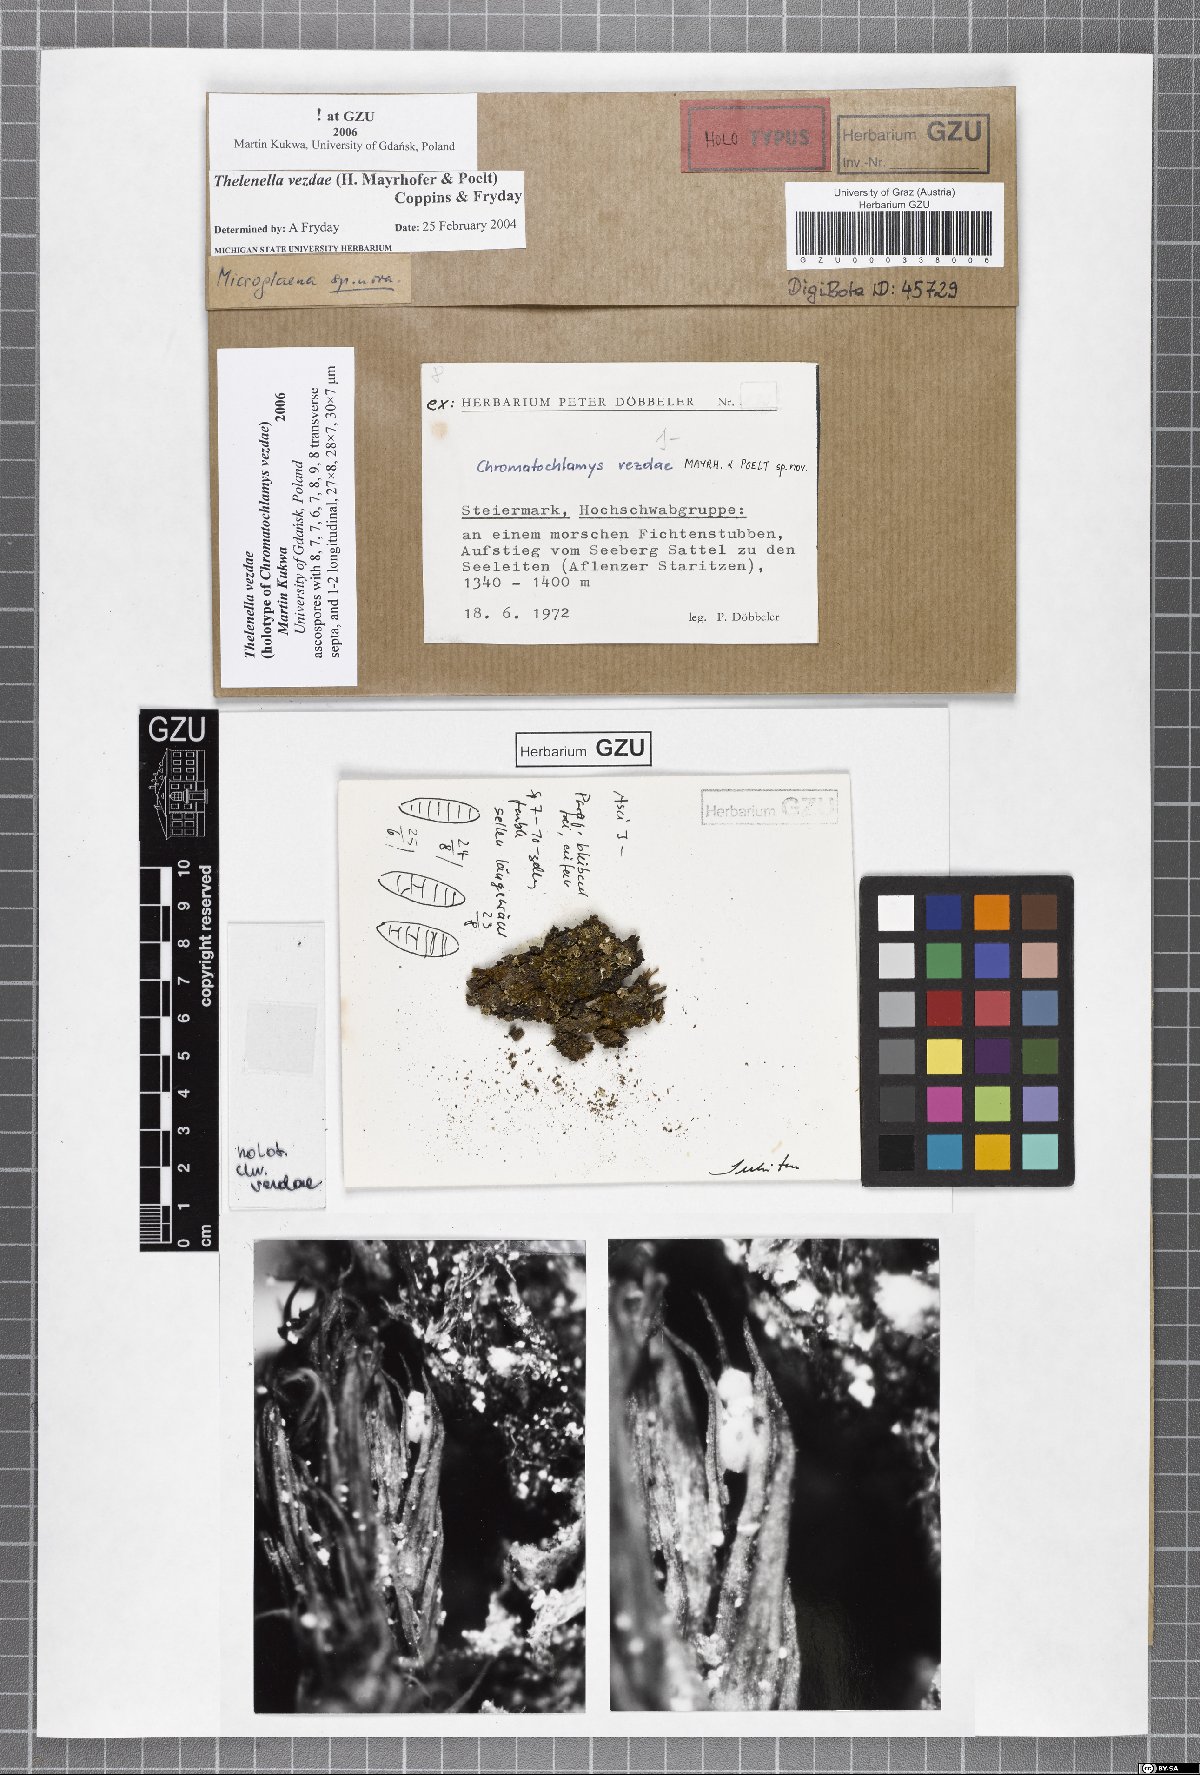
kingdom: Fungi
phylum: Ascomycota
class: Lecanoromycetes
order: Ostropales
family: Thelenellaceae
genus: Thelenella
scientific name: Thelenella vezdae
